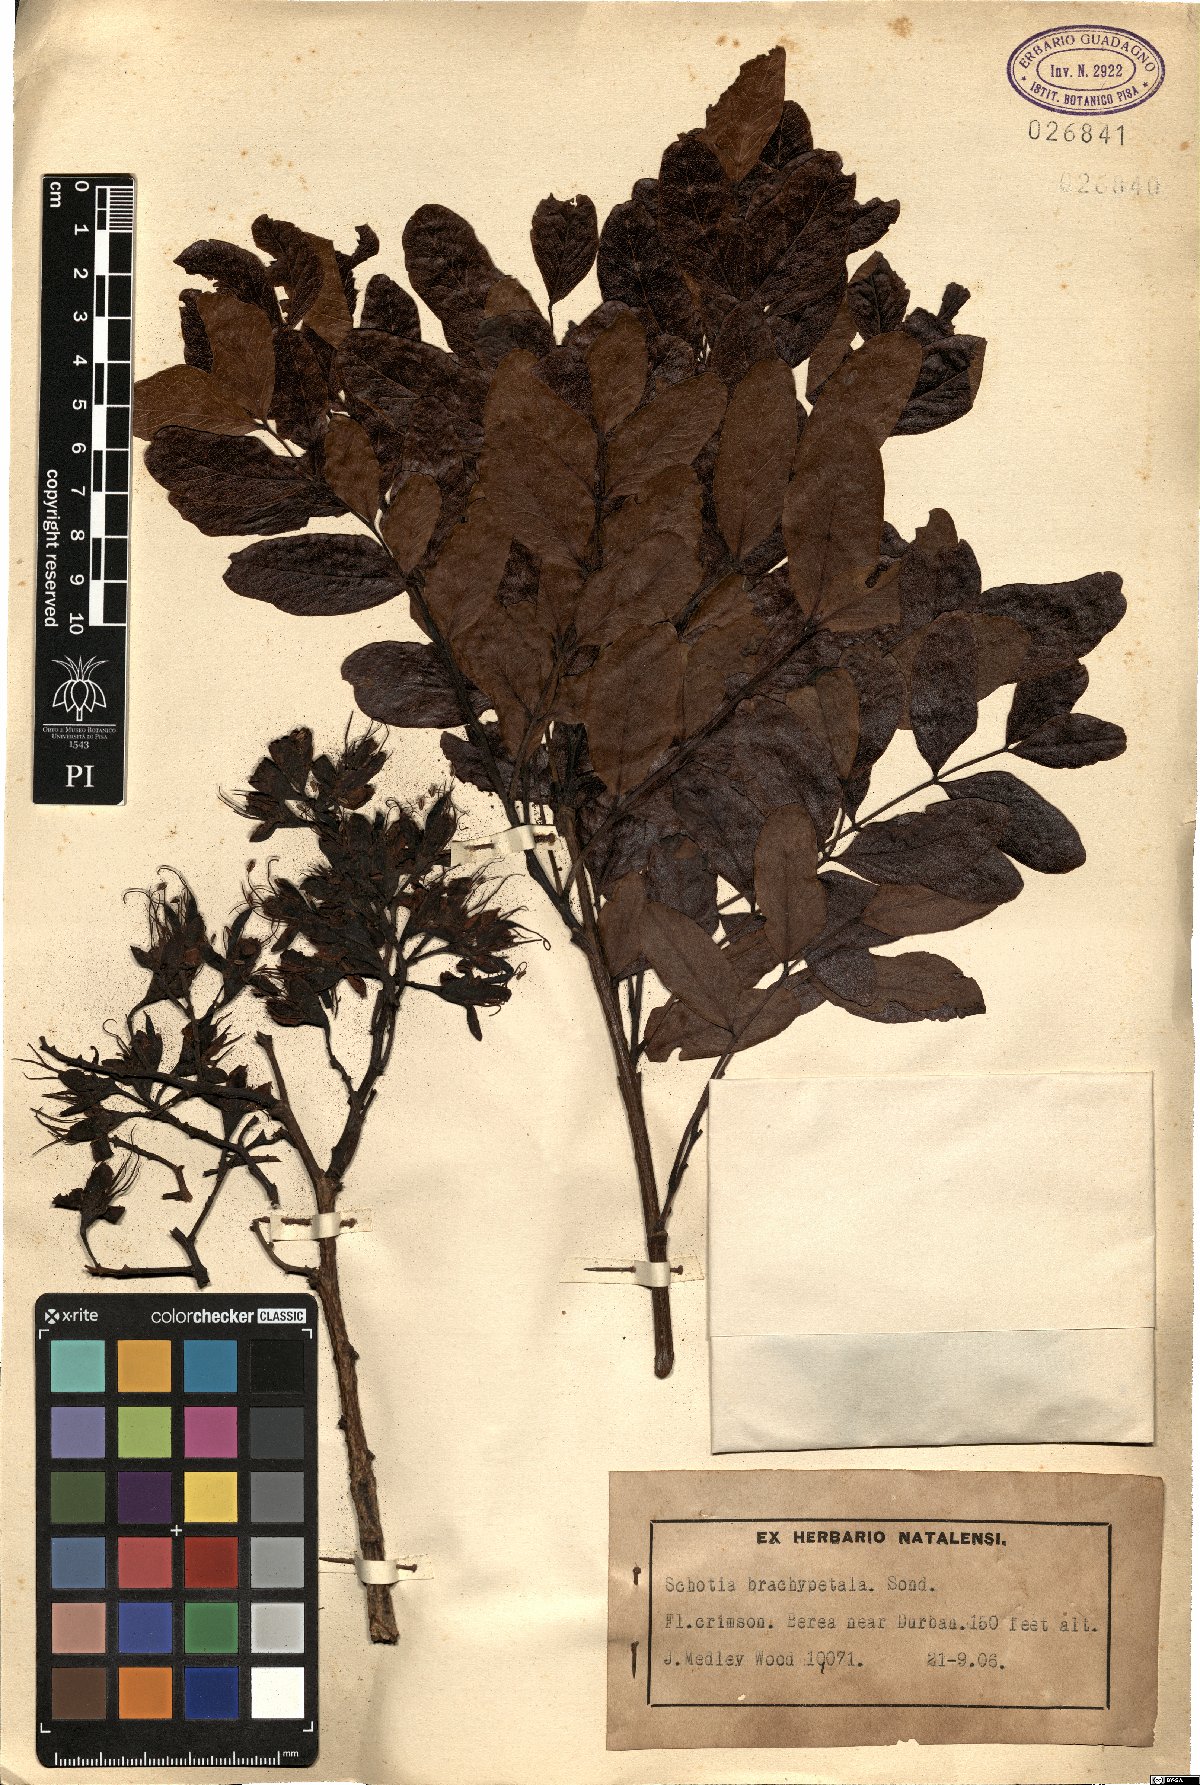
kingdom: Plantae
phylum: Tracheophyta
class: Magnoliopsida
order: Fabales
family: Fabaceae
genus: Schotia
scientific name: Schotia brachypetala
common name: Weeping boer-bean
